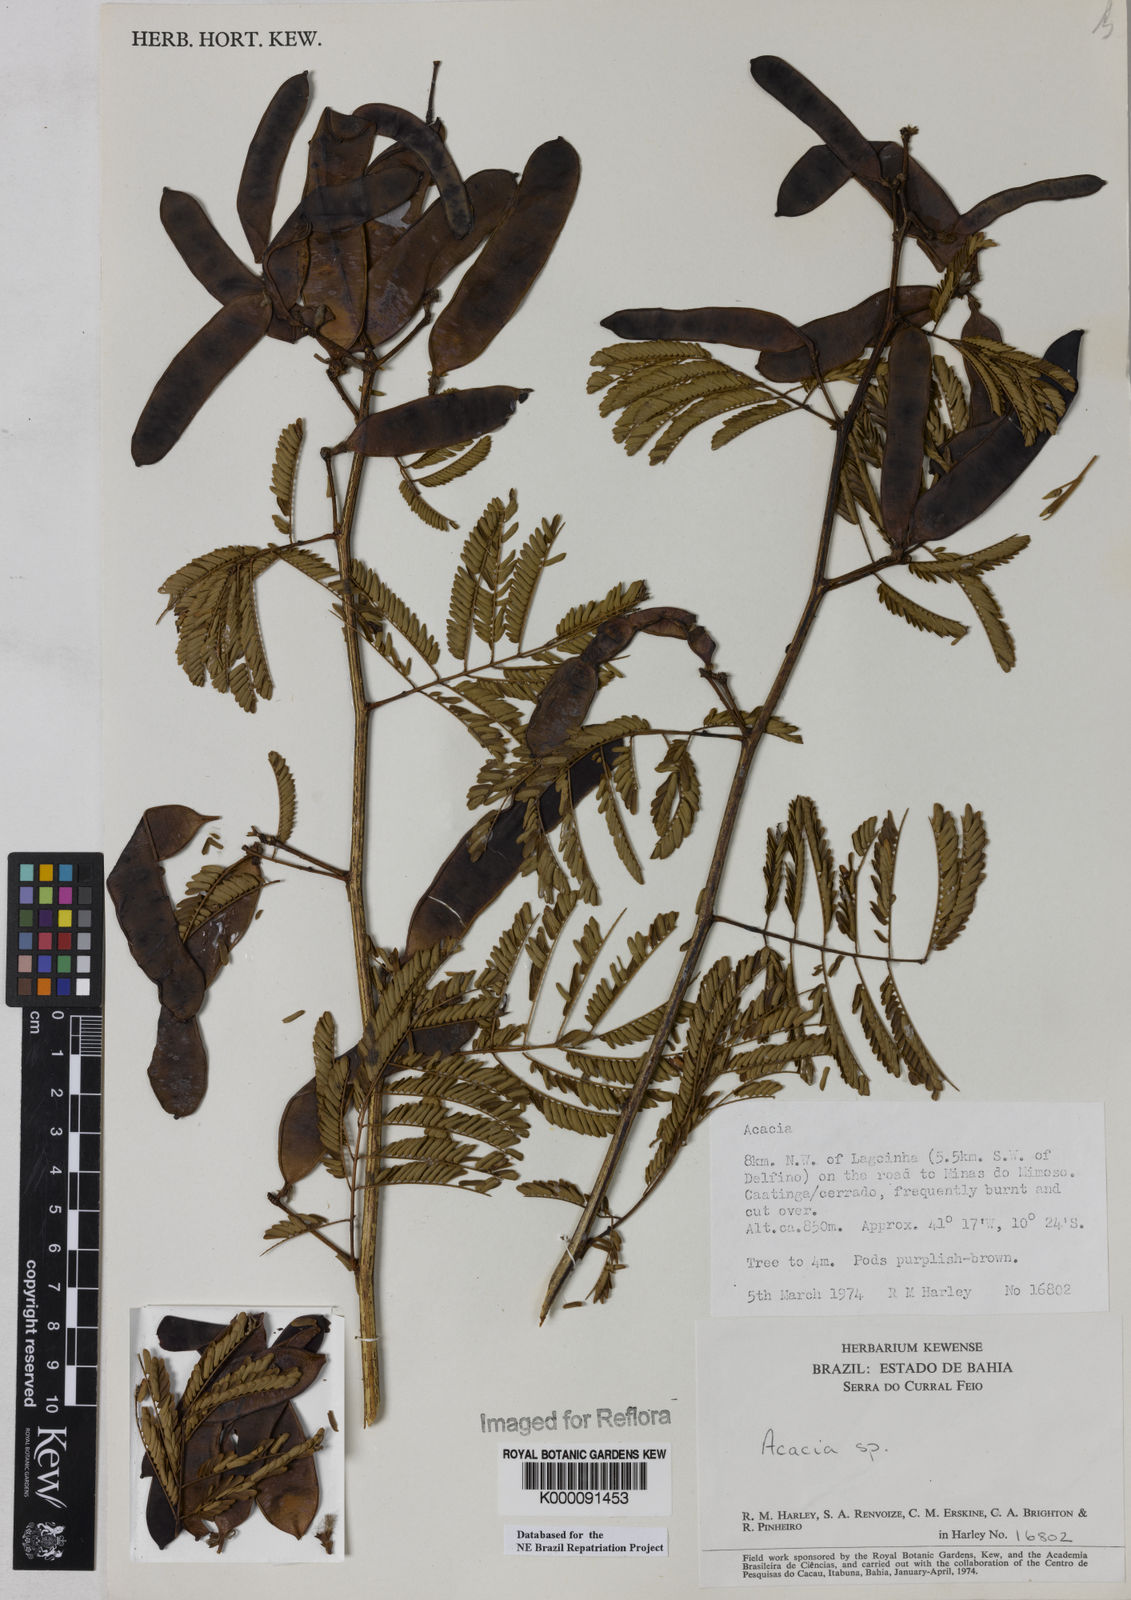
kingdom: Plantae
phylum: Tracheophyta
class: Magnoliopsida
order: Fabales
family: Fabaceae
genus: Acacia
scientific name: Acacia
